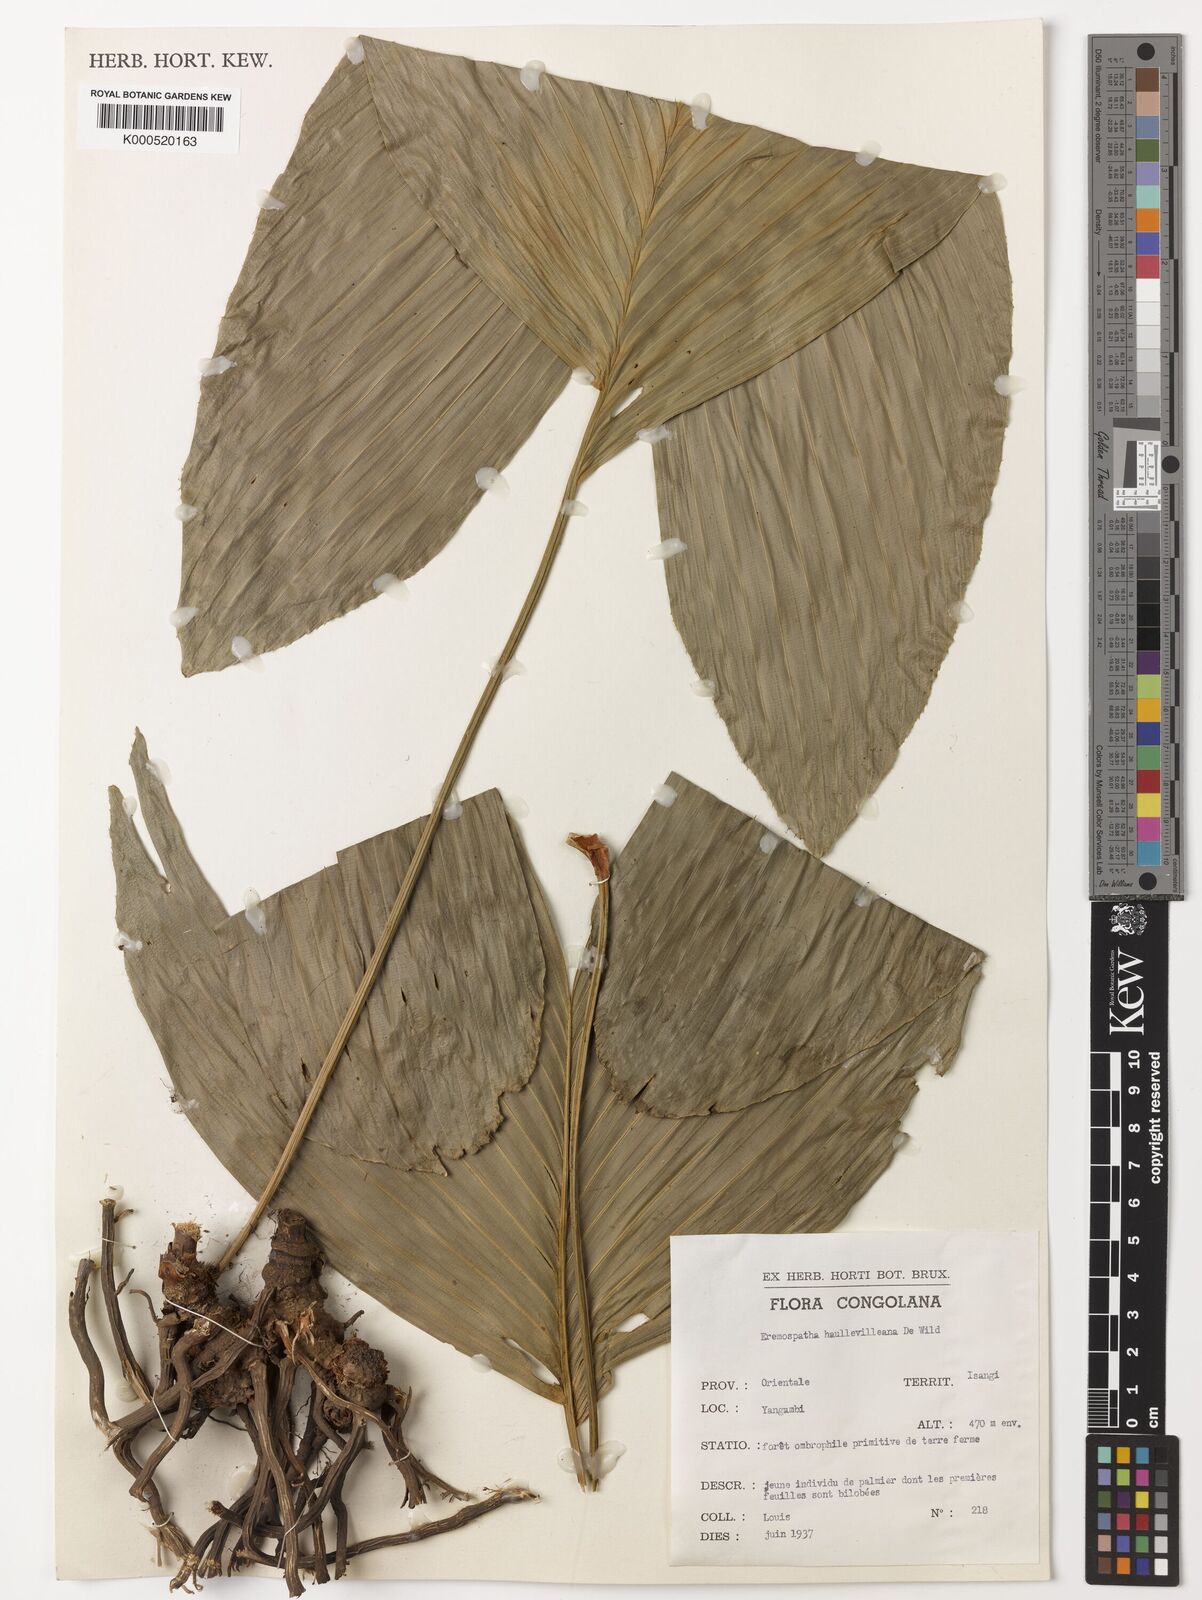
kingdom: Plantae
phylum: Tracheophyta
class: Liliopsida
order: Arecales
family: Arecaceae
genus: Eremospatha
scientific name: Eremospatha haullevilleana
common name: Rattan
